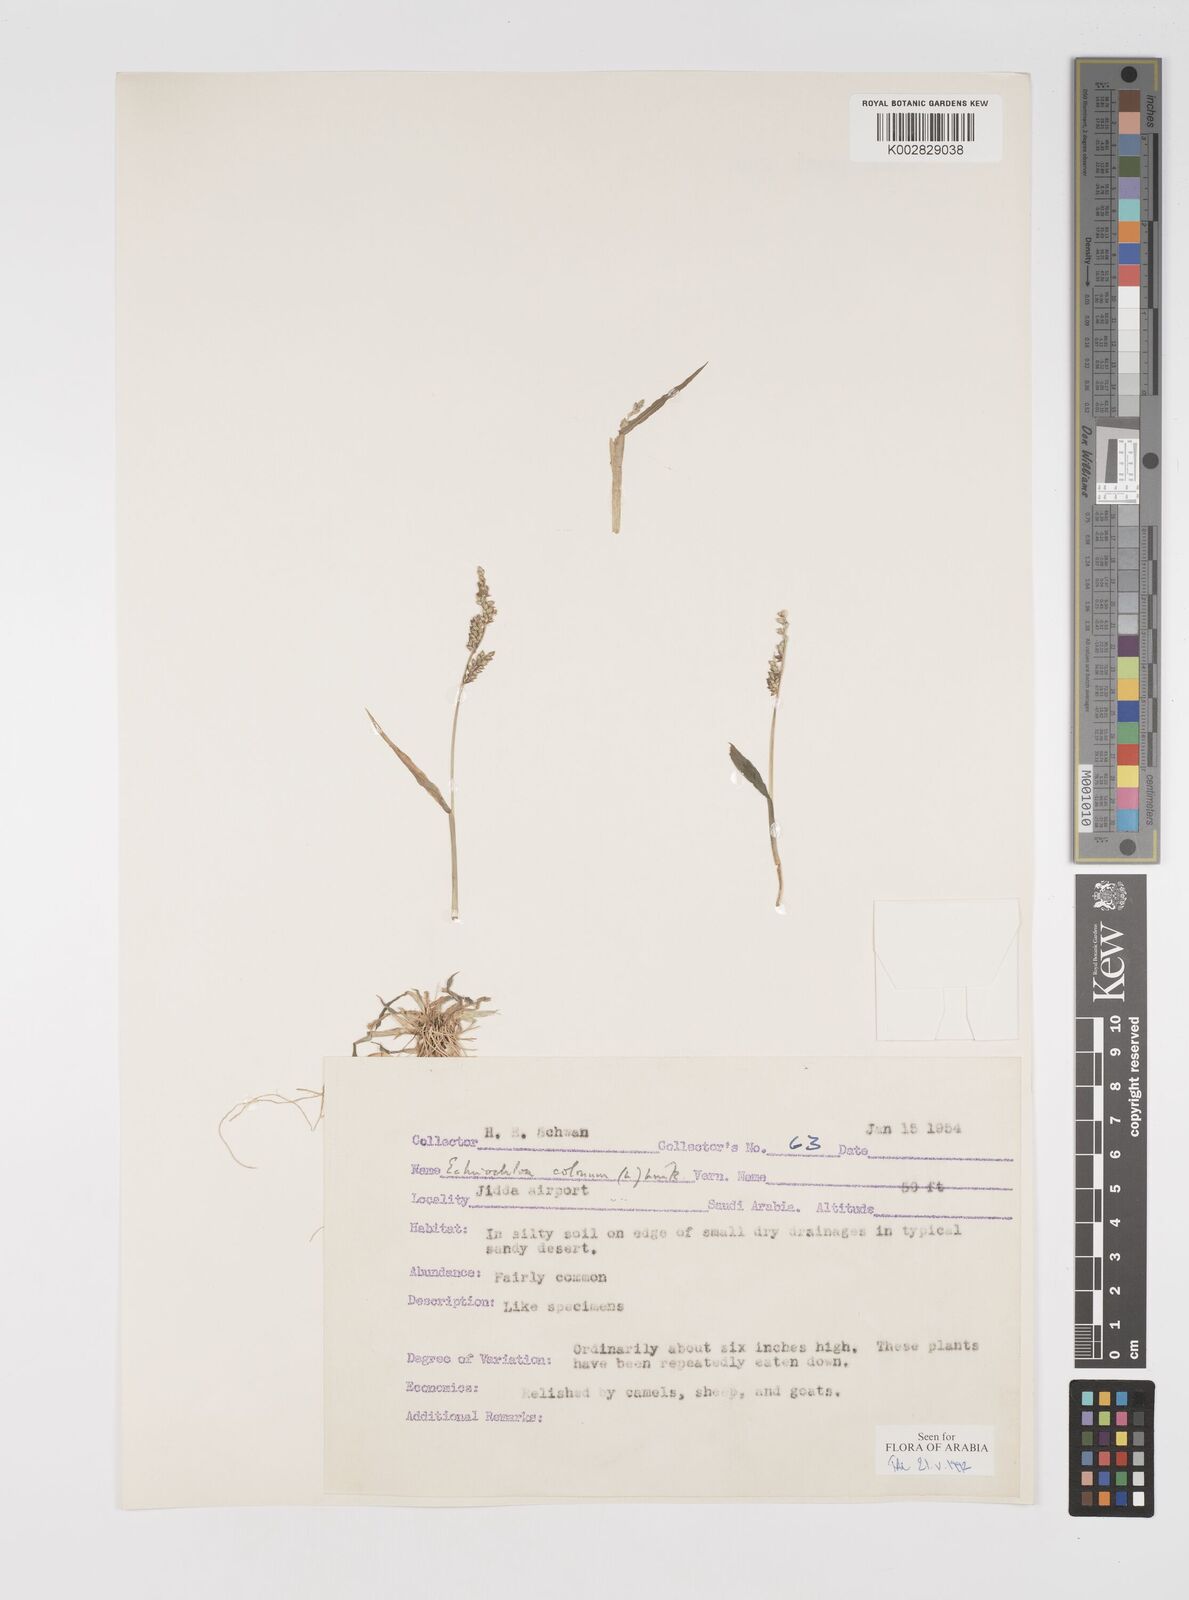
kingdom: Plantae
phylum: Tracheophyta
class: Liliopsida
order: Poales
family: Poaceae
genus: Echinochloa
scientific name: Echinochloa colonum
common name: Jungle rice
